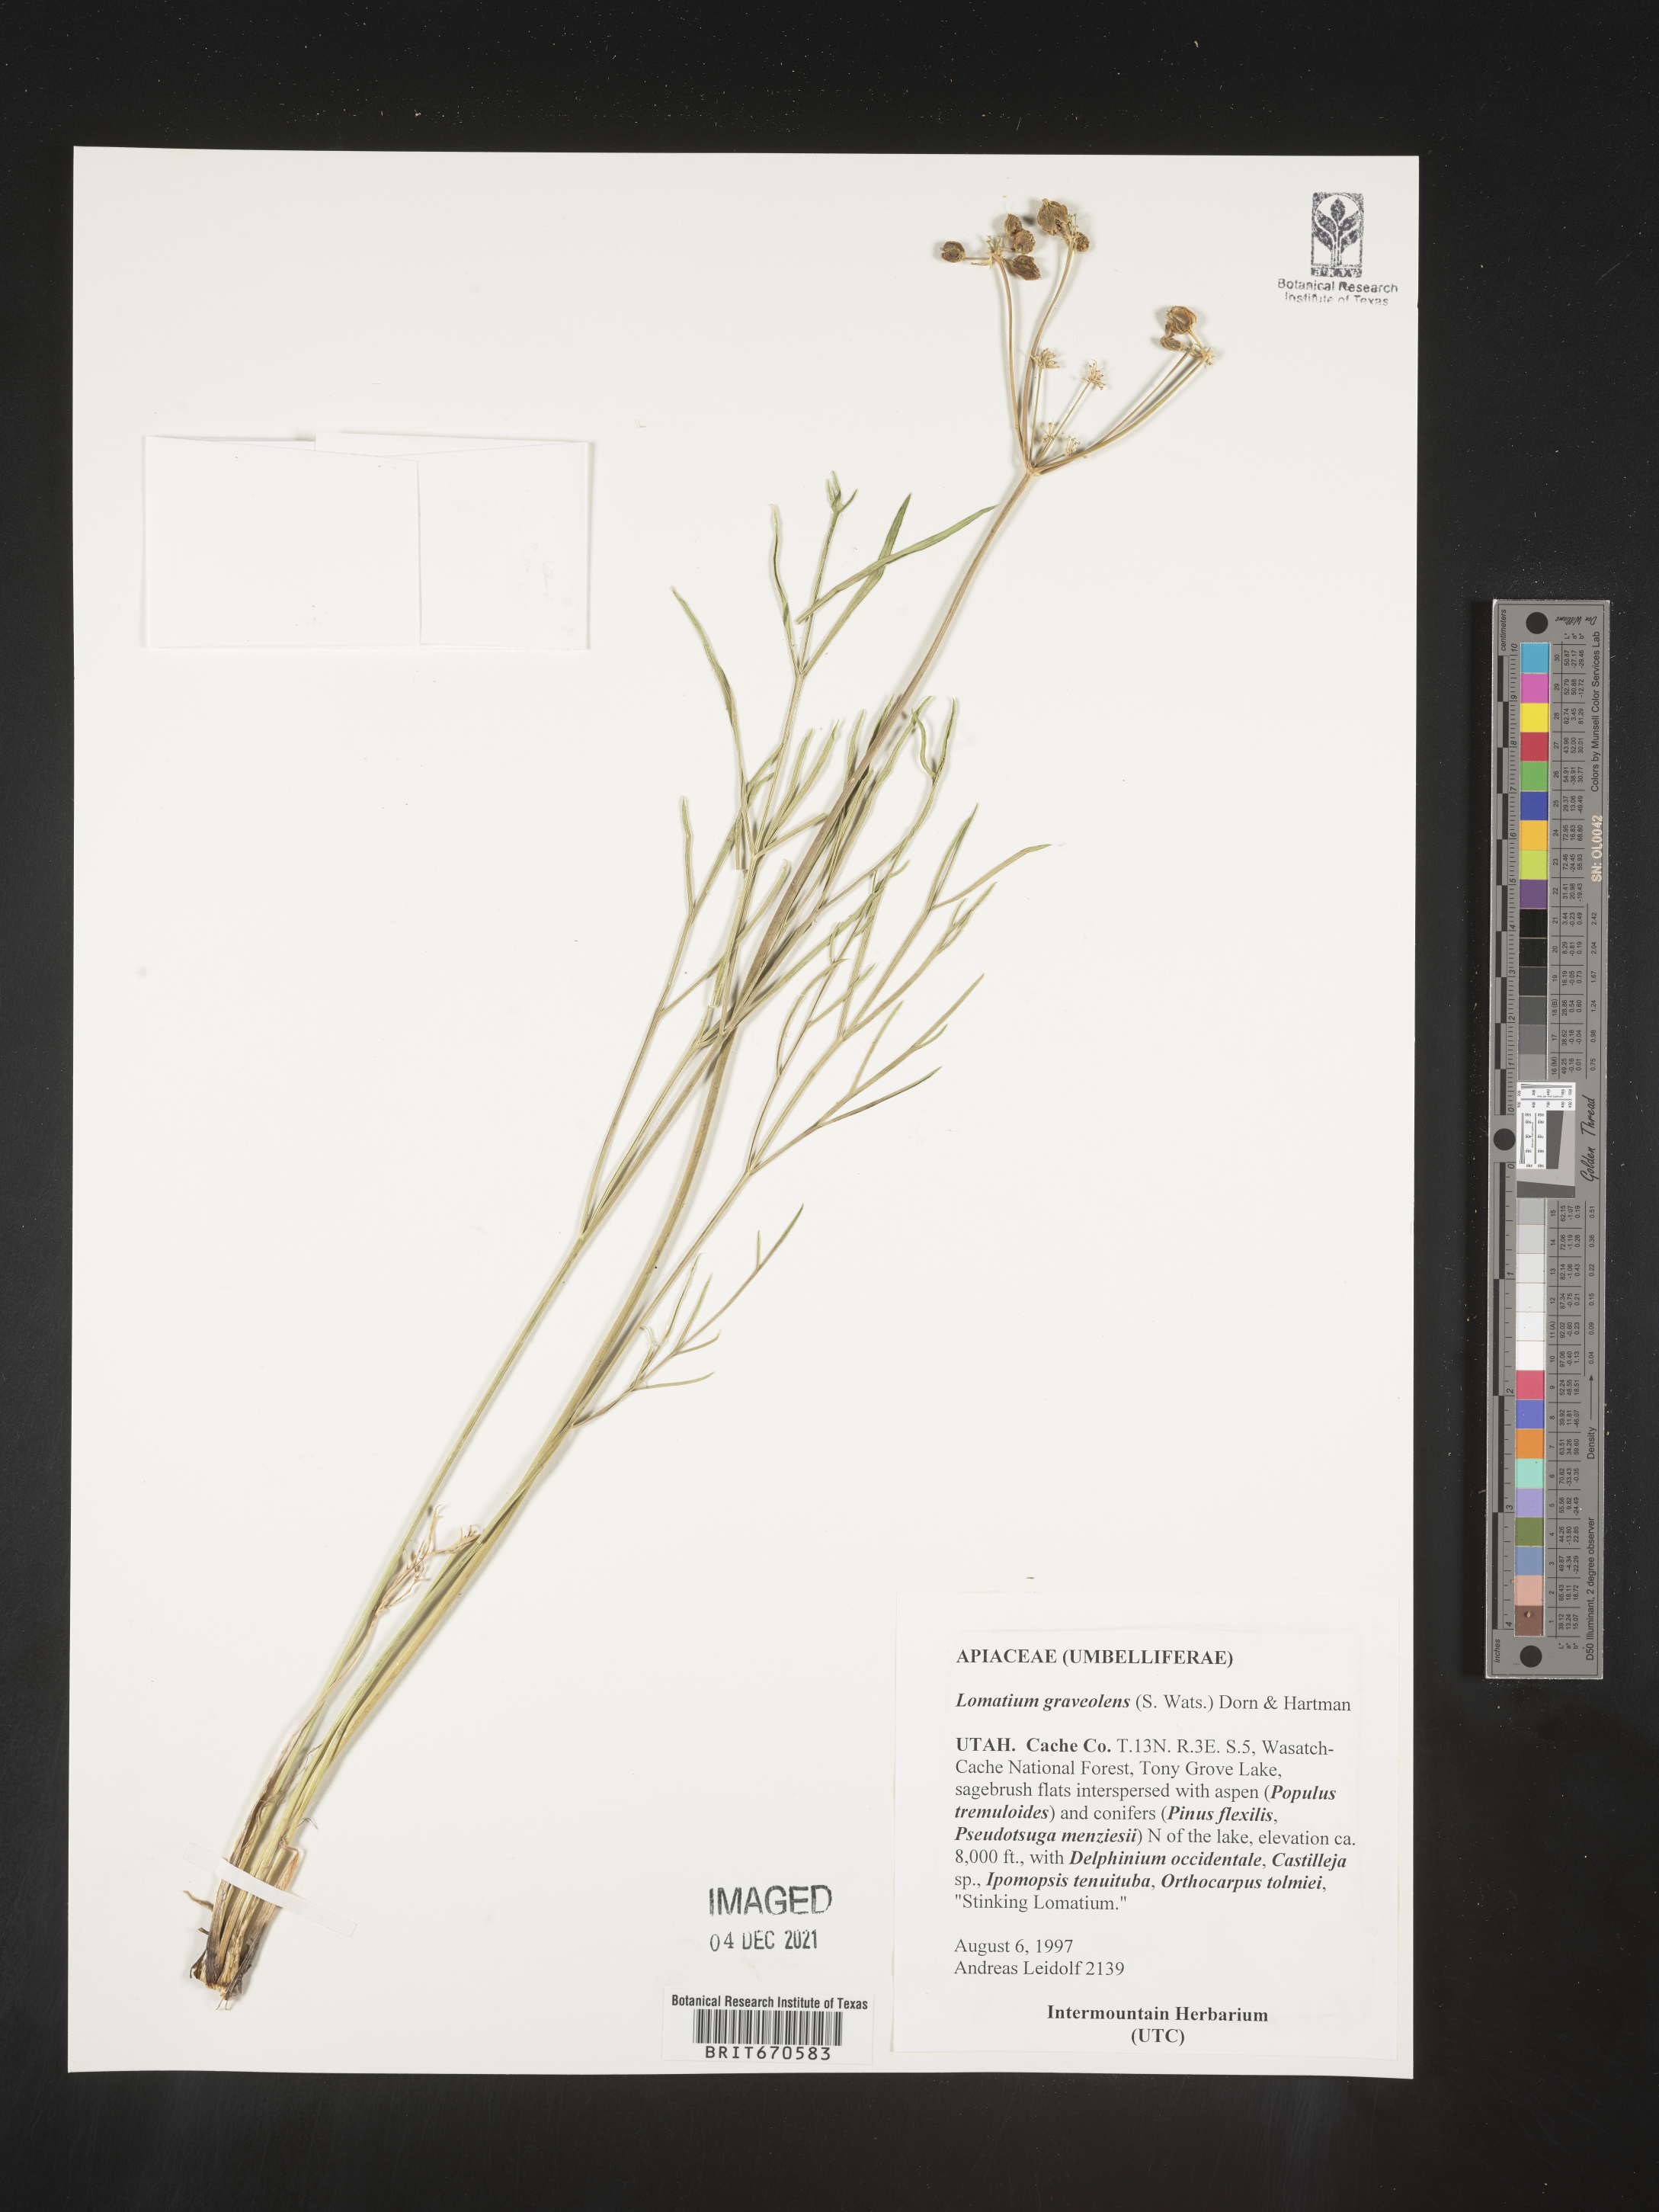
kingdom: Plantae
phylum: Tracheophyta
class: Magnoliopsida
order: Apiales
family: Apiaceae
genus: Lomatium
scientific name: Lomatium
